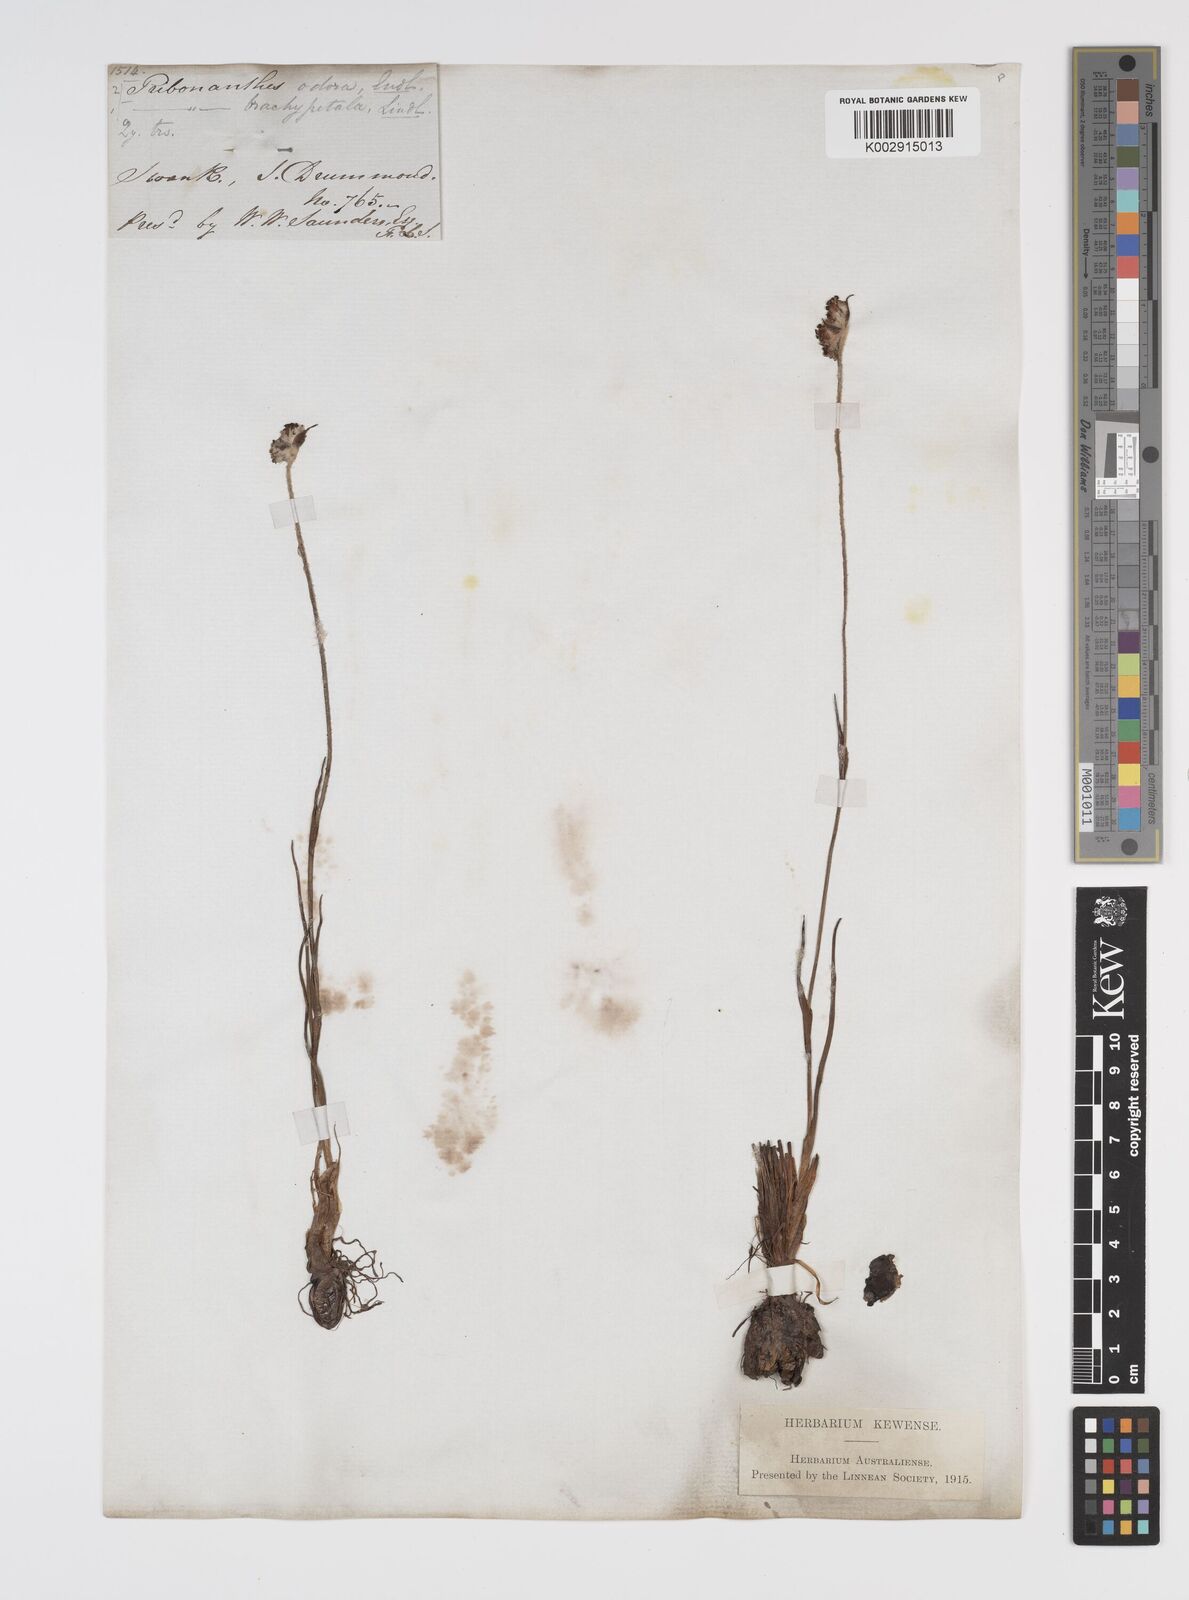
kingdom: Plantae
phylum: Tracheophyta
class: Liliopsida
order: Commelinales
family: Haemodoraceae
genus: Tribonanthes
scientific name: Tribonanthes brachypetala
